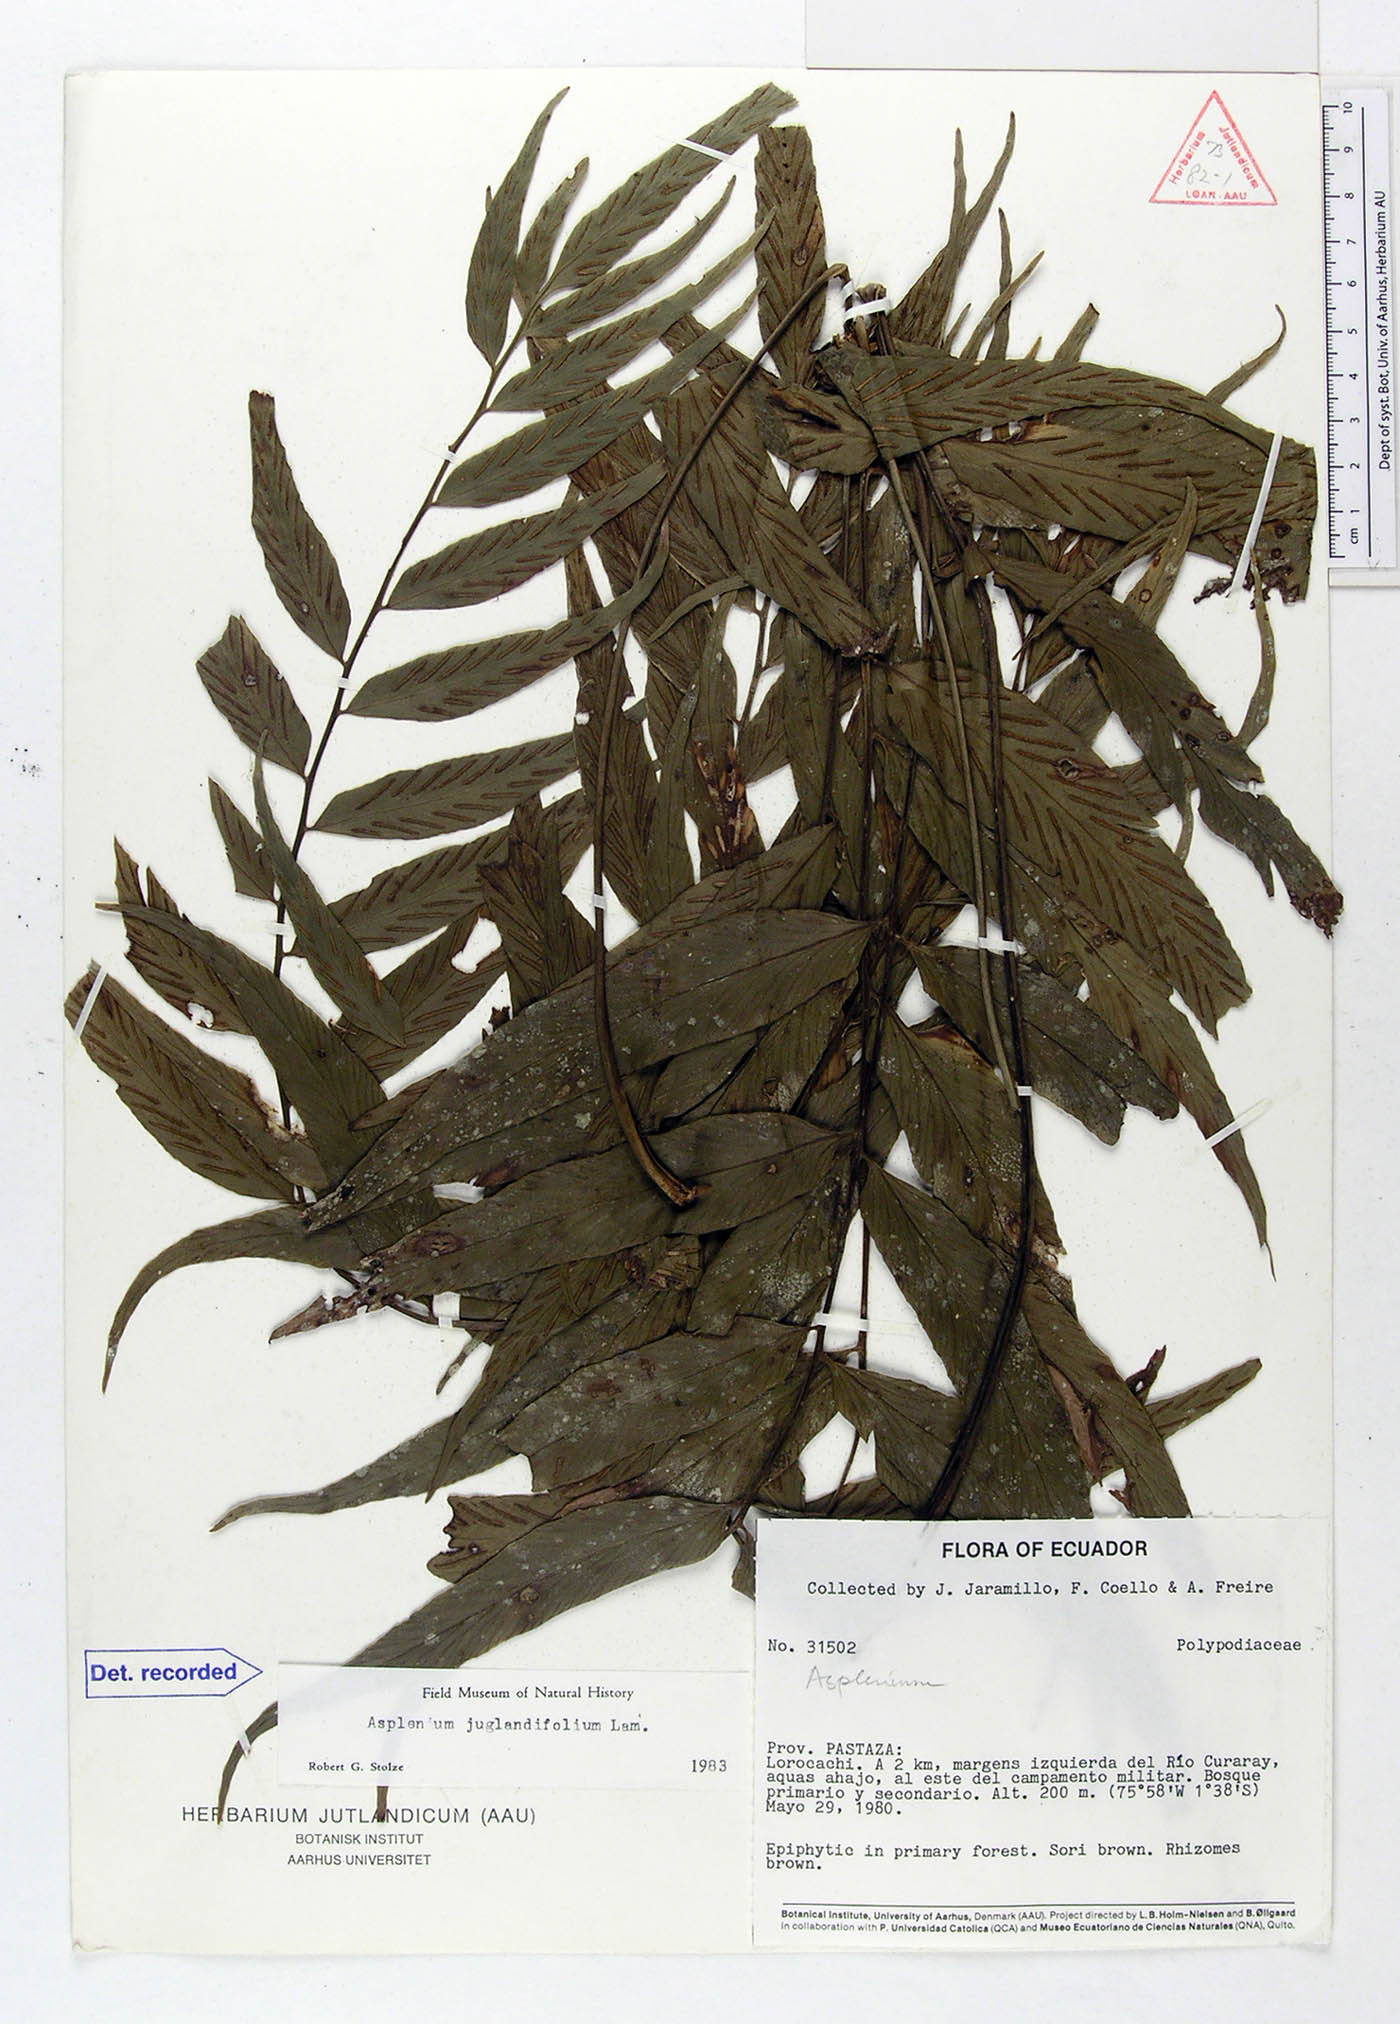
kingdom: Plantae
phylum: Tracheophyta
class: Polypodiopsida
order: Polypodiales
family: Aspleniaceae
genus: Asplenium
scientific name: Asplenium juglandifolium
